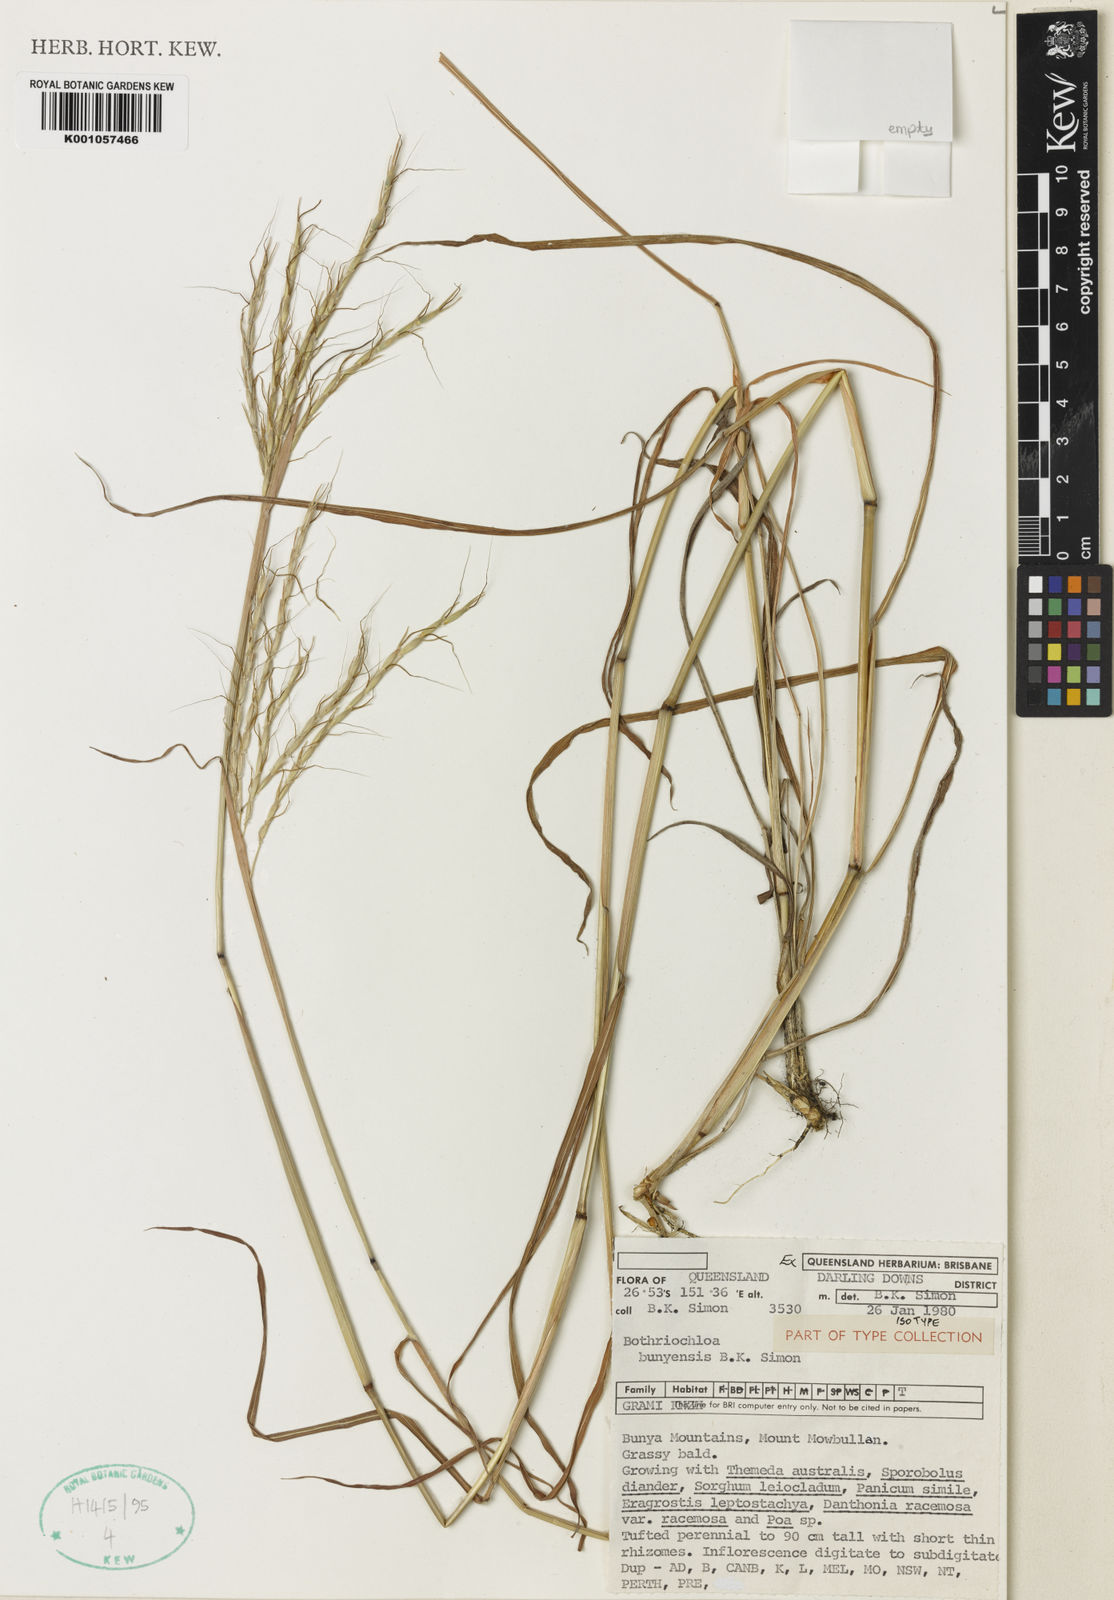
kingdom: Plantae
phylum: Tracheophyta
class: Liliopsida
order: Poales
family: Poaceae
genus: Bothriochloa
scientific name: Bothriochloa bunyensis
